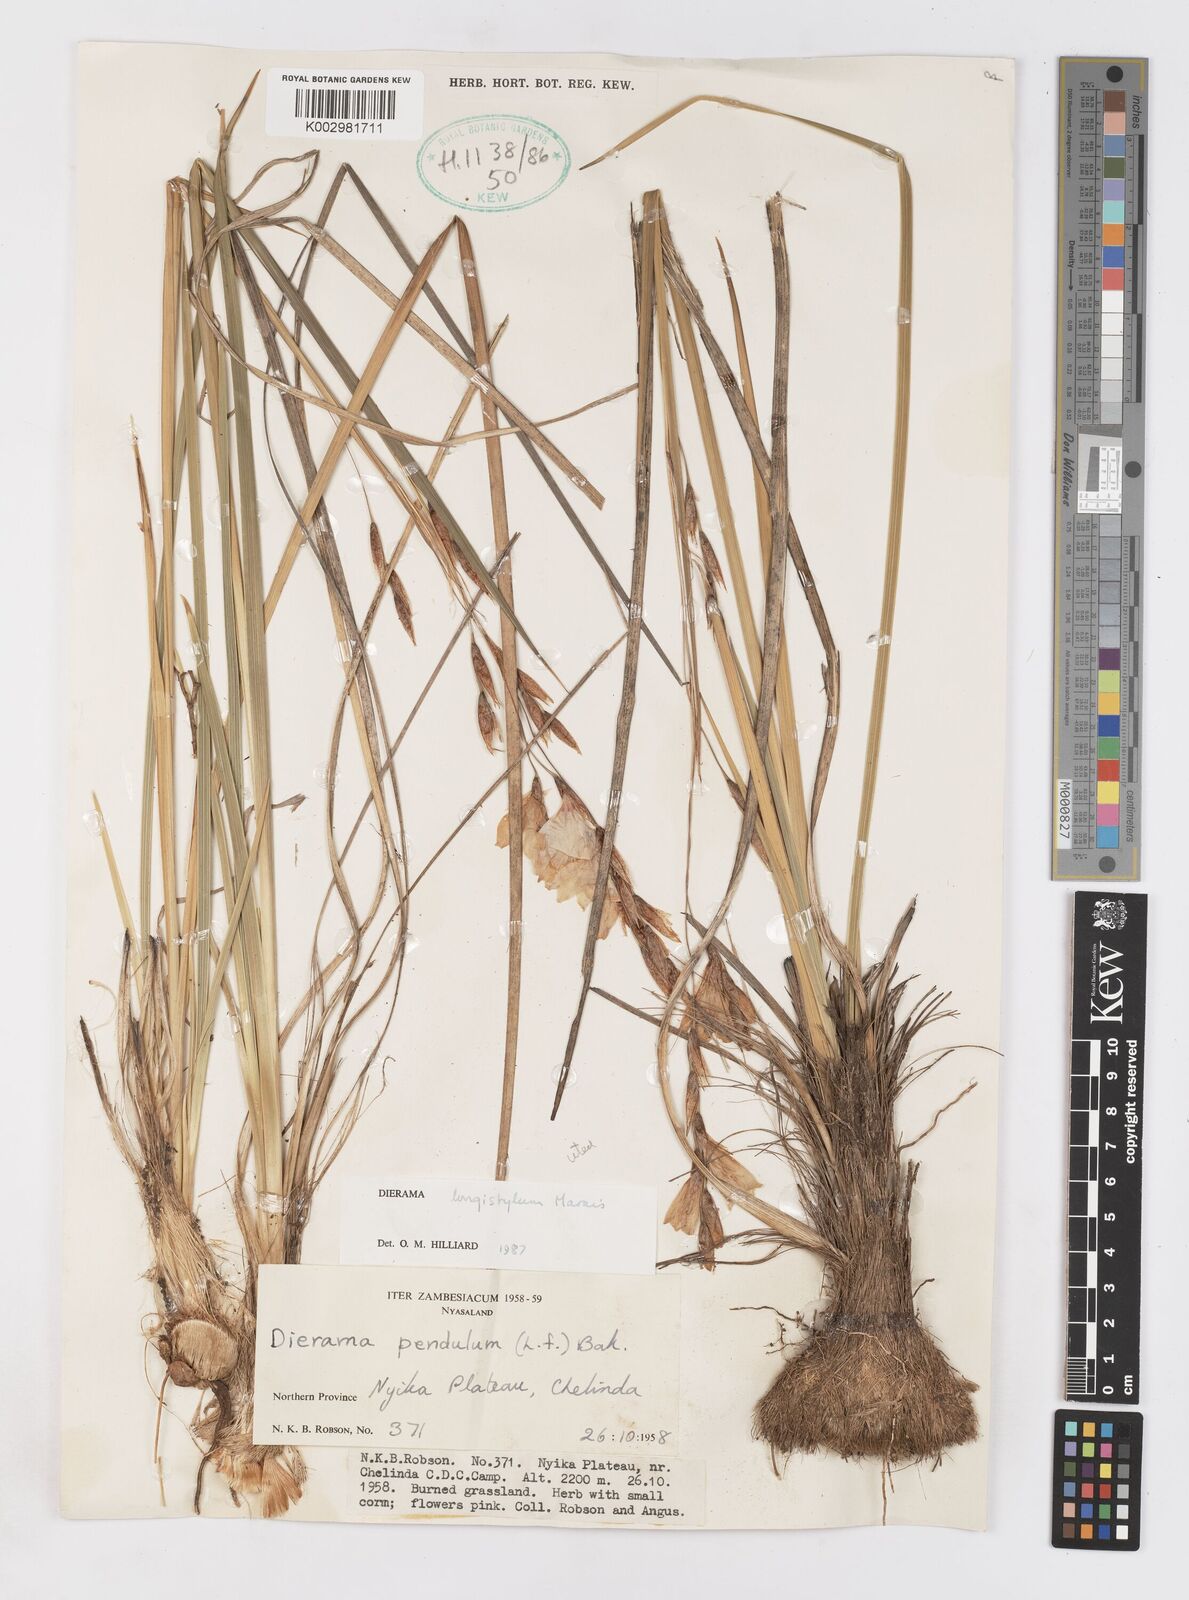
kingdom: Plantae
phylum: Tracheophyta
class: Liliopsida
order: Asparagales
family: Iridaceae
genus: Dierama
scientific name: Dierama longistylum
